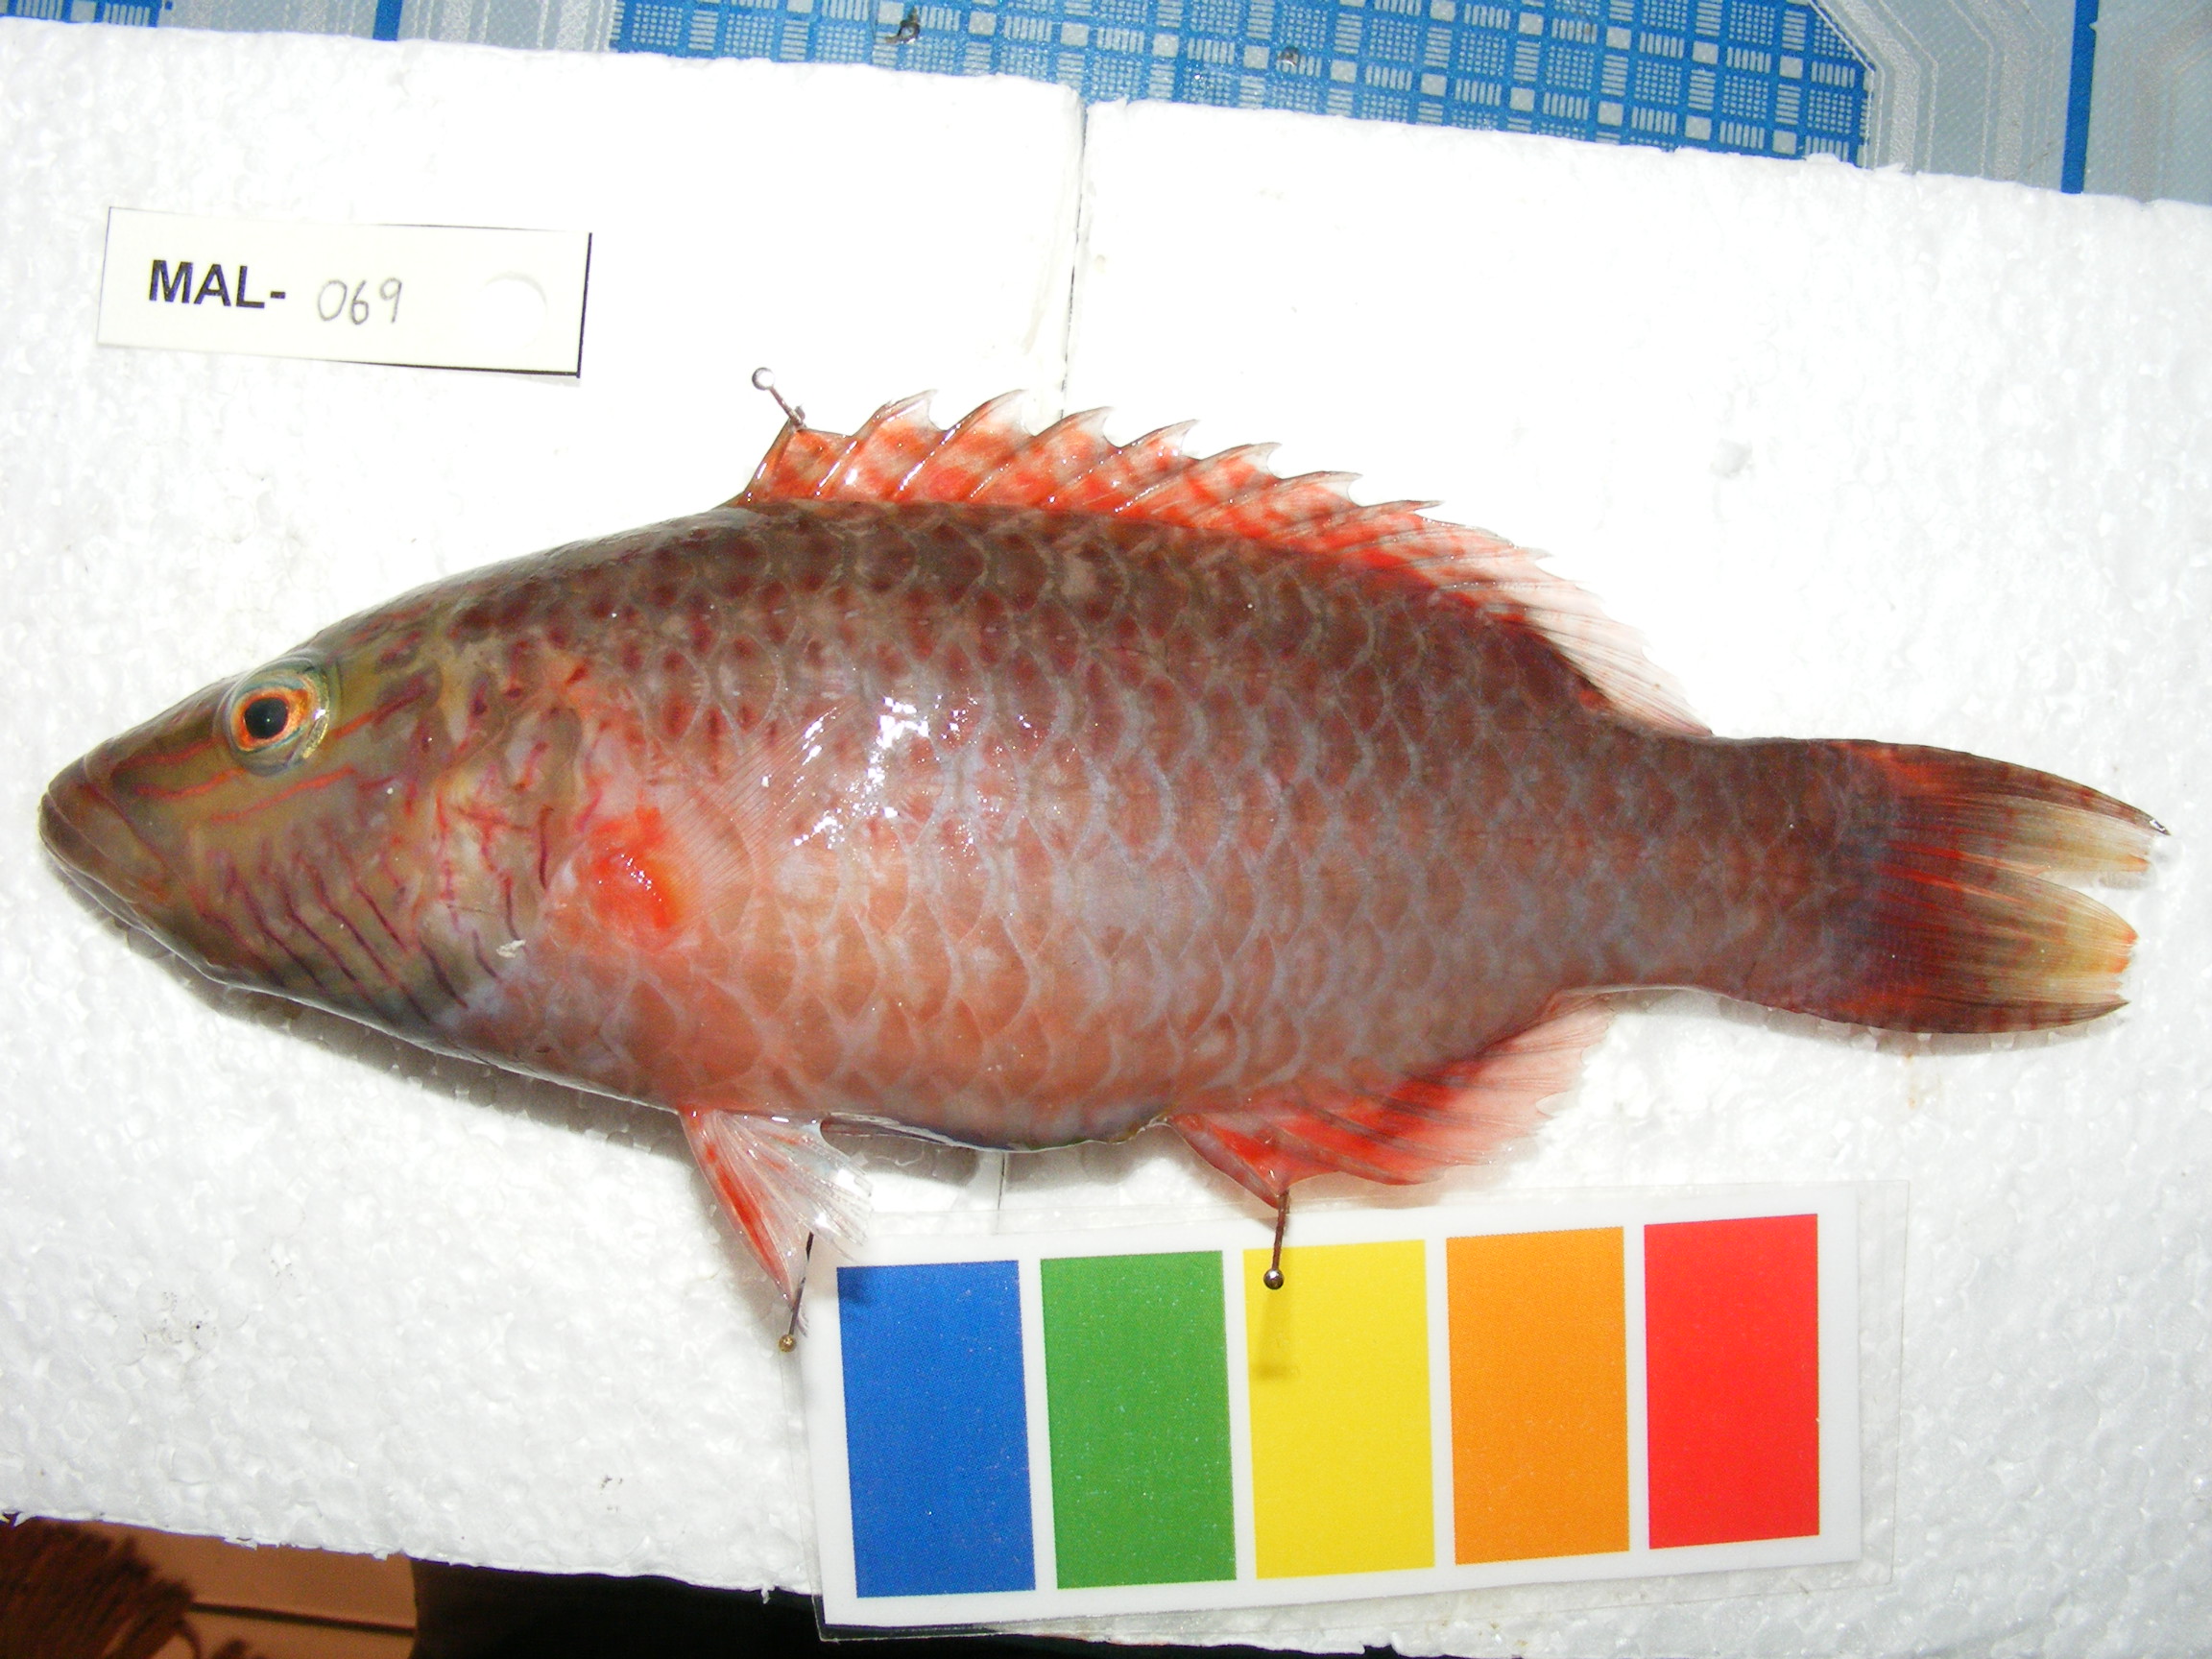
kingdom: Animalia
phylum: Chordata
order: Perciformes
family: Labridae
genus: Oxycheilinus
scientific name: Oxycheilinus digramma
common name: Bandcheek wrasse
